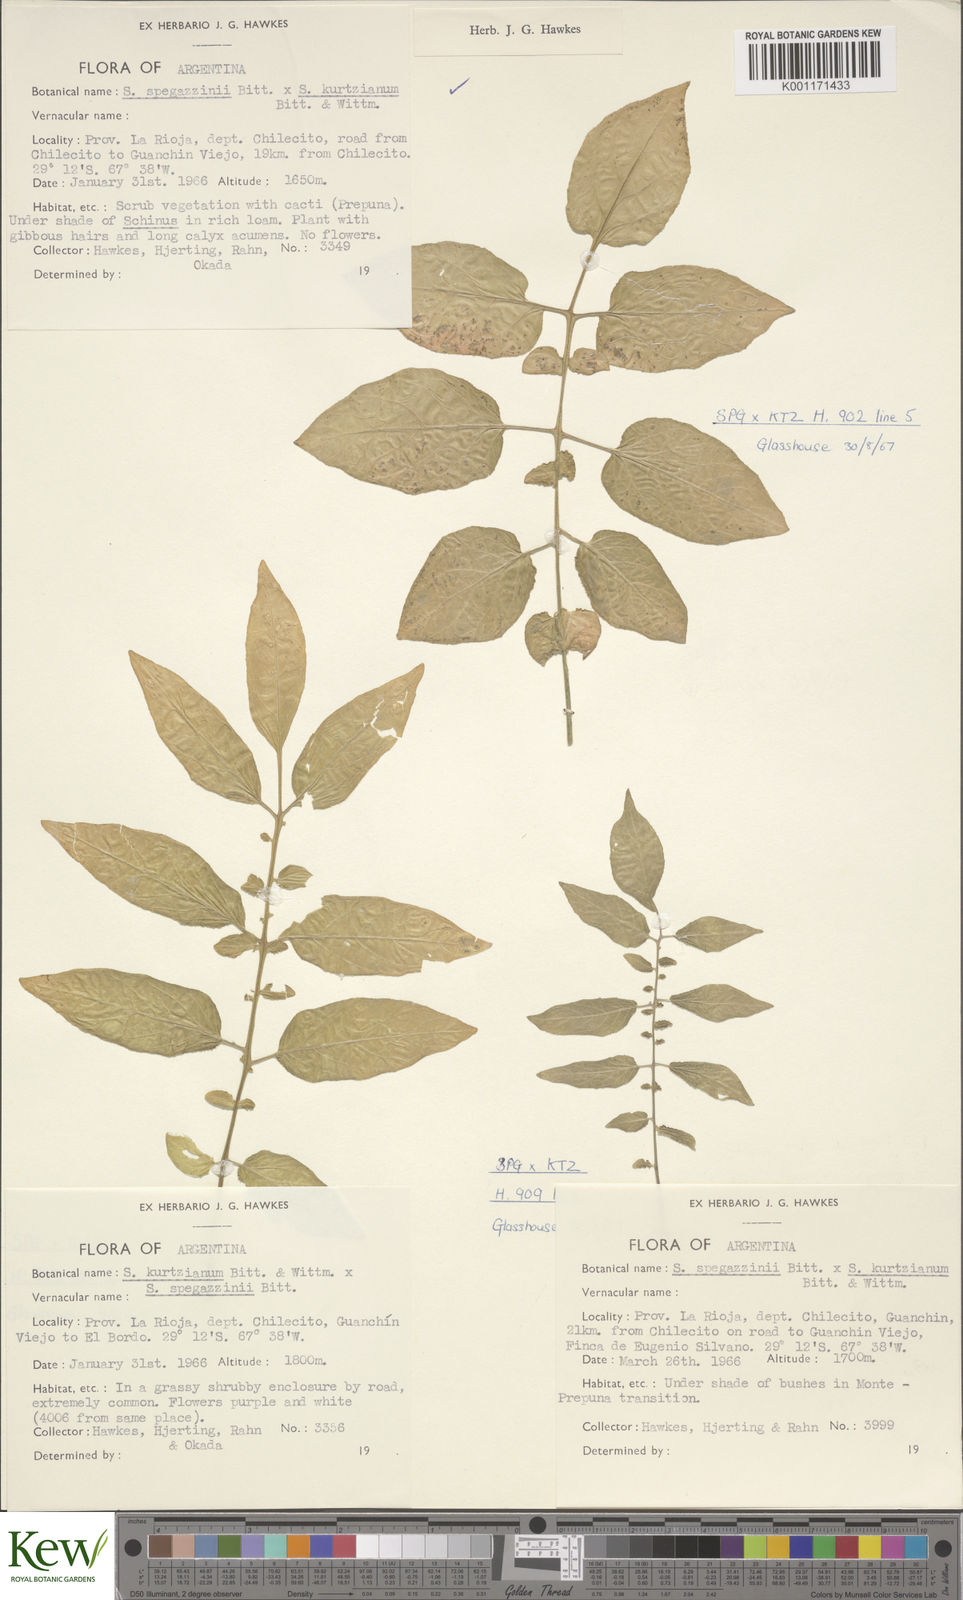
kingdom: Plantae
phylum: Tracheophyta
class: Magnoliopsida
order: Solanales
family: Solanaceae
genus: Solanum
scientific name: Solanum brevicaule
